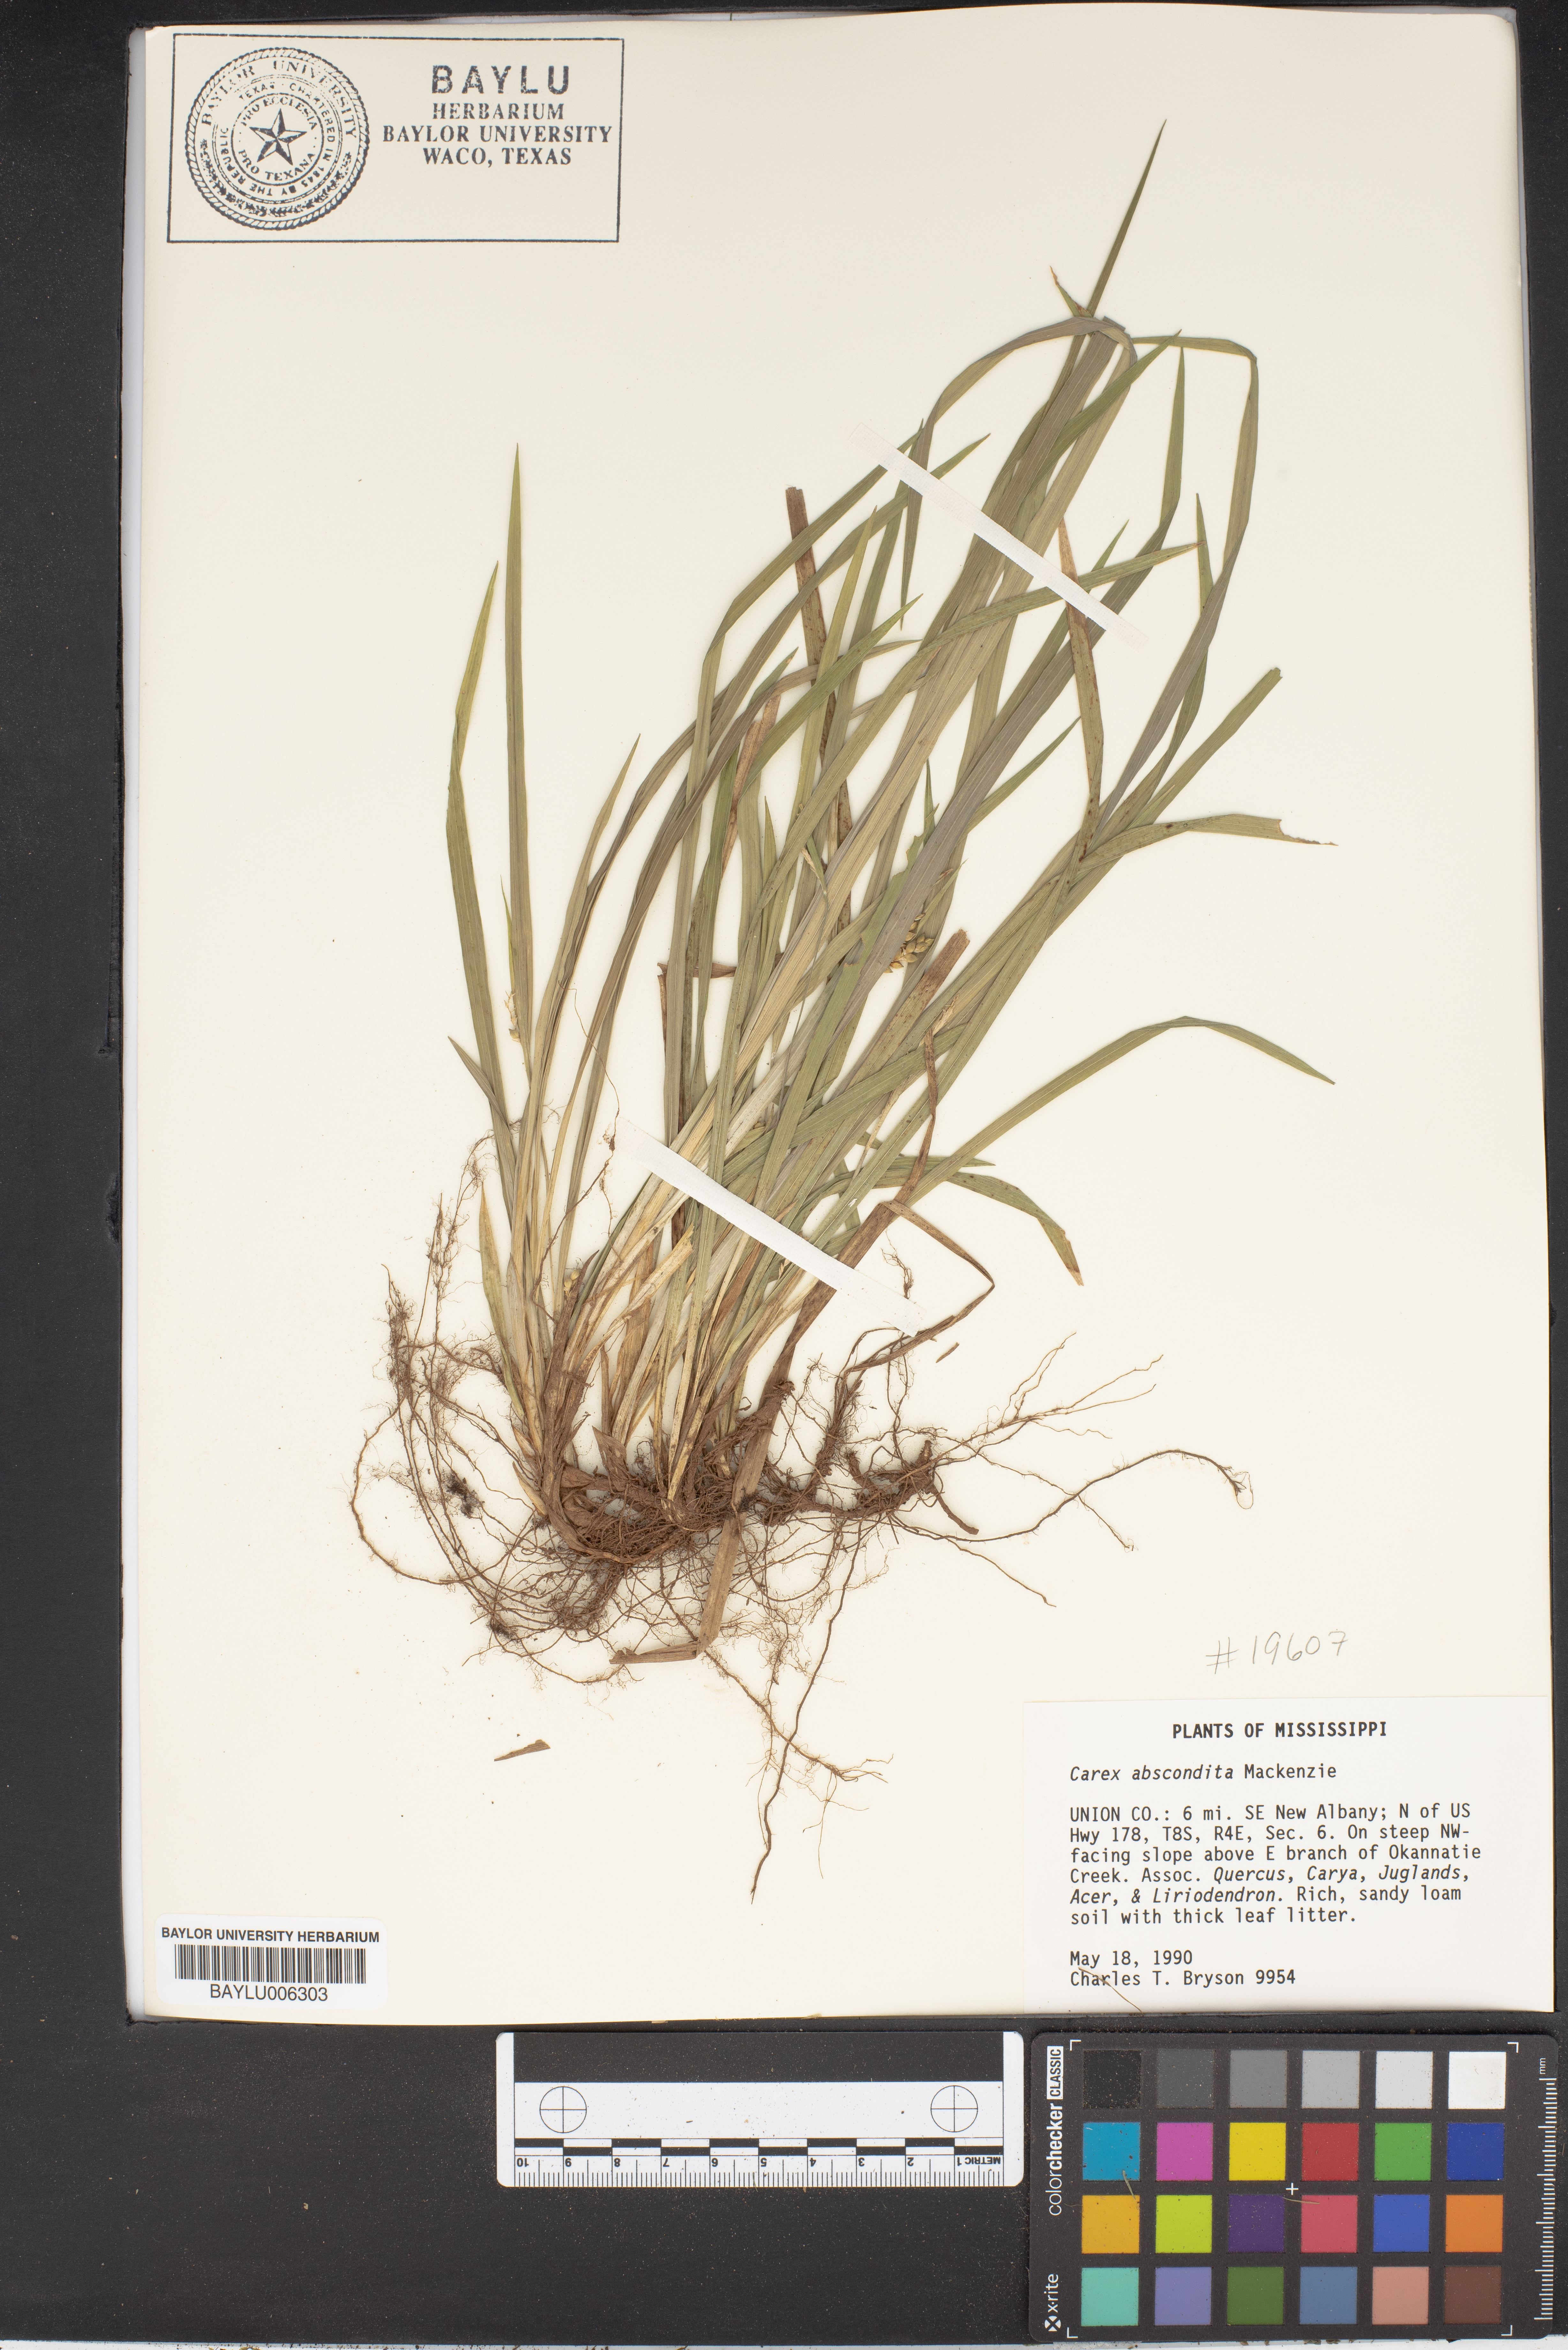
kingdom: Plantae
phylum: Tracheophyta
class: Liliopsida
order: Poales
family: Cyperaceae
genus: Carex
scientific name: Carex abscondita
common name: Thicket sedge
